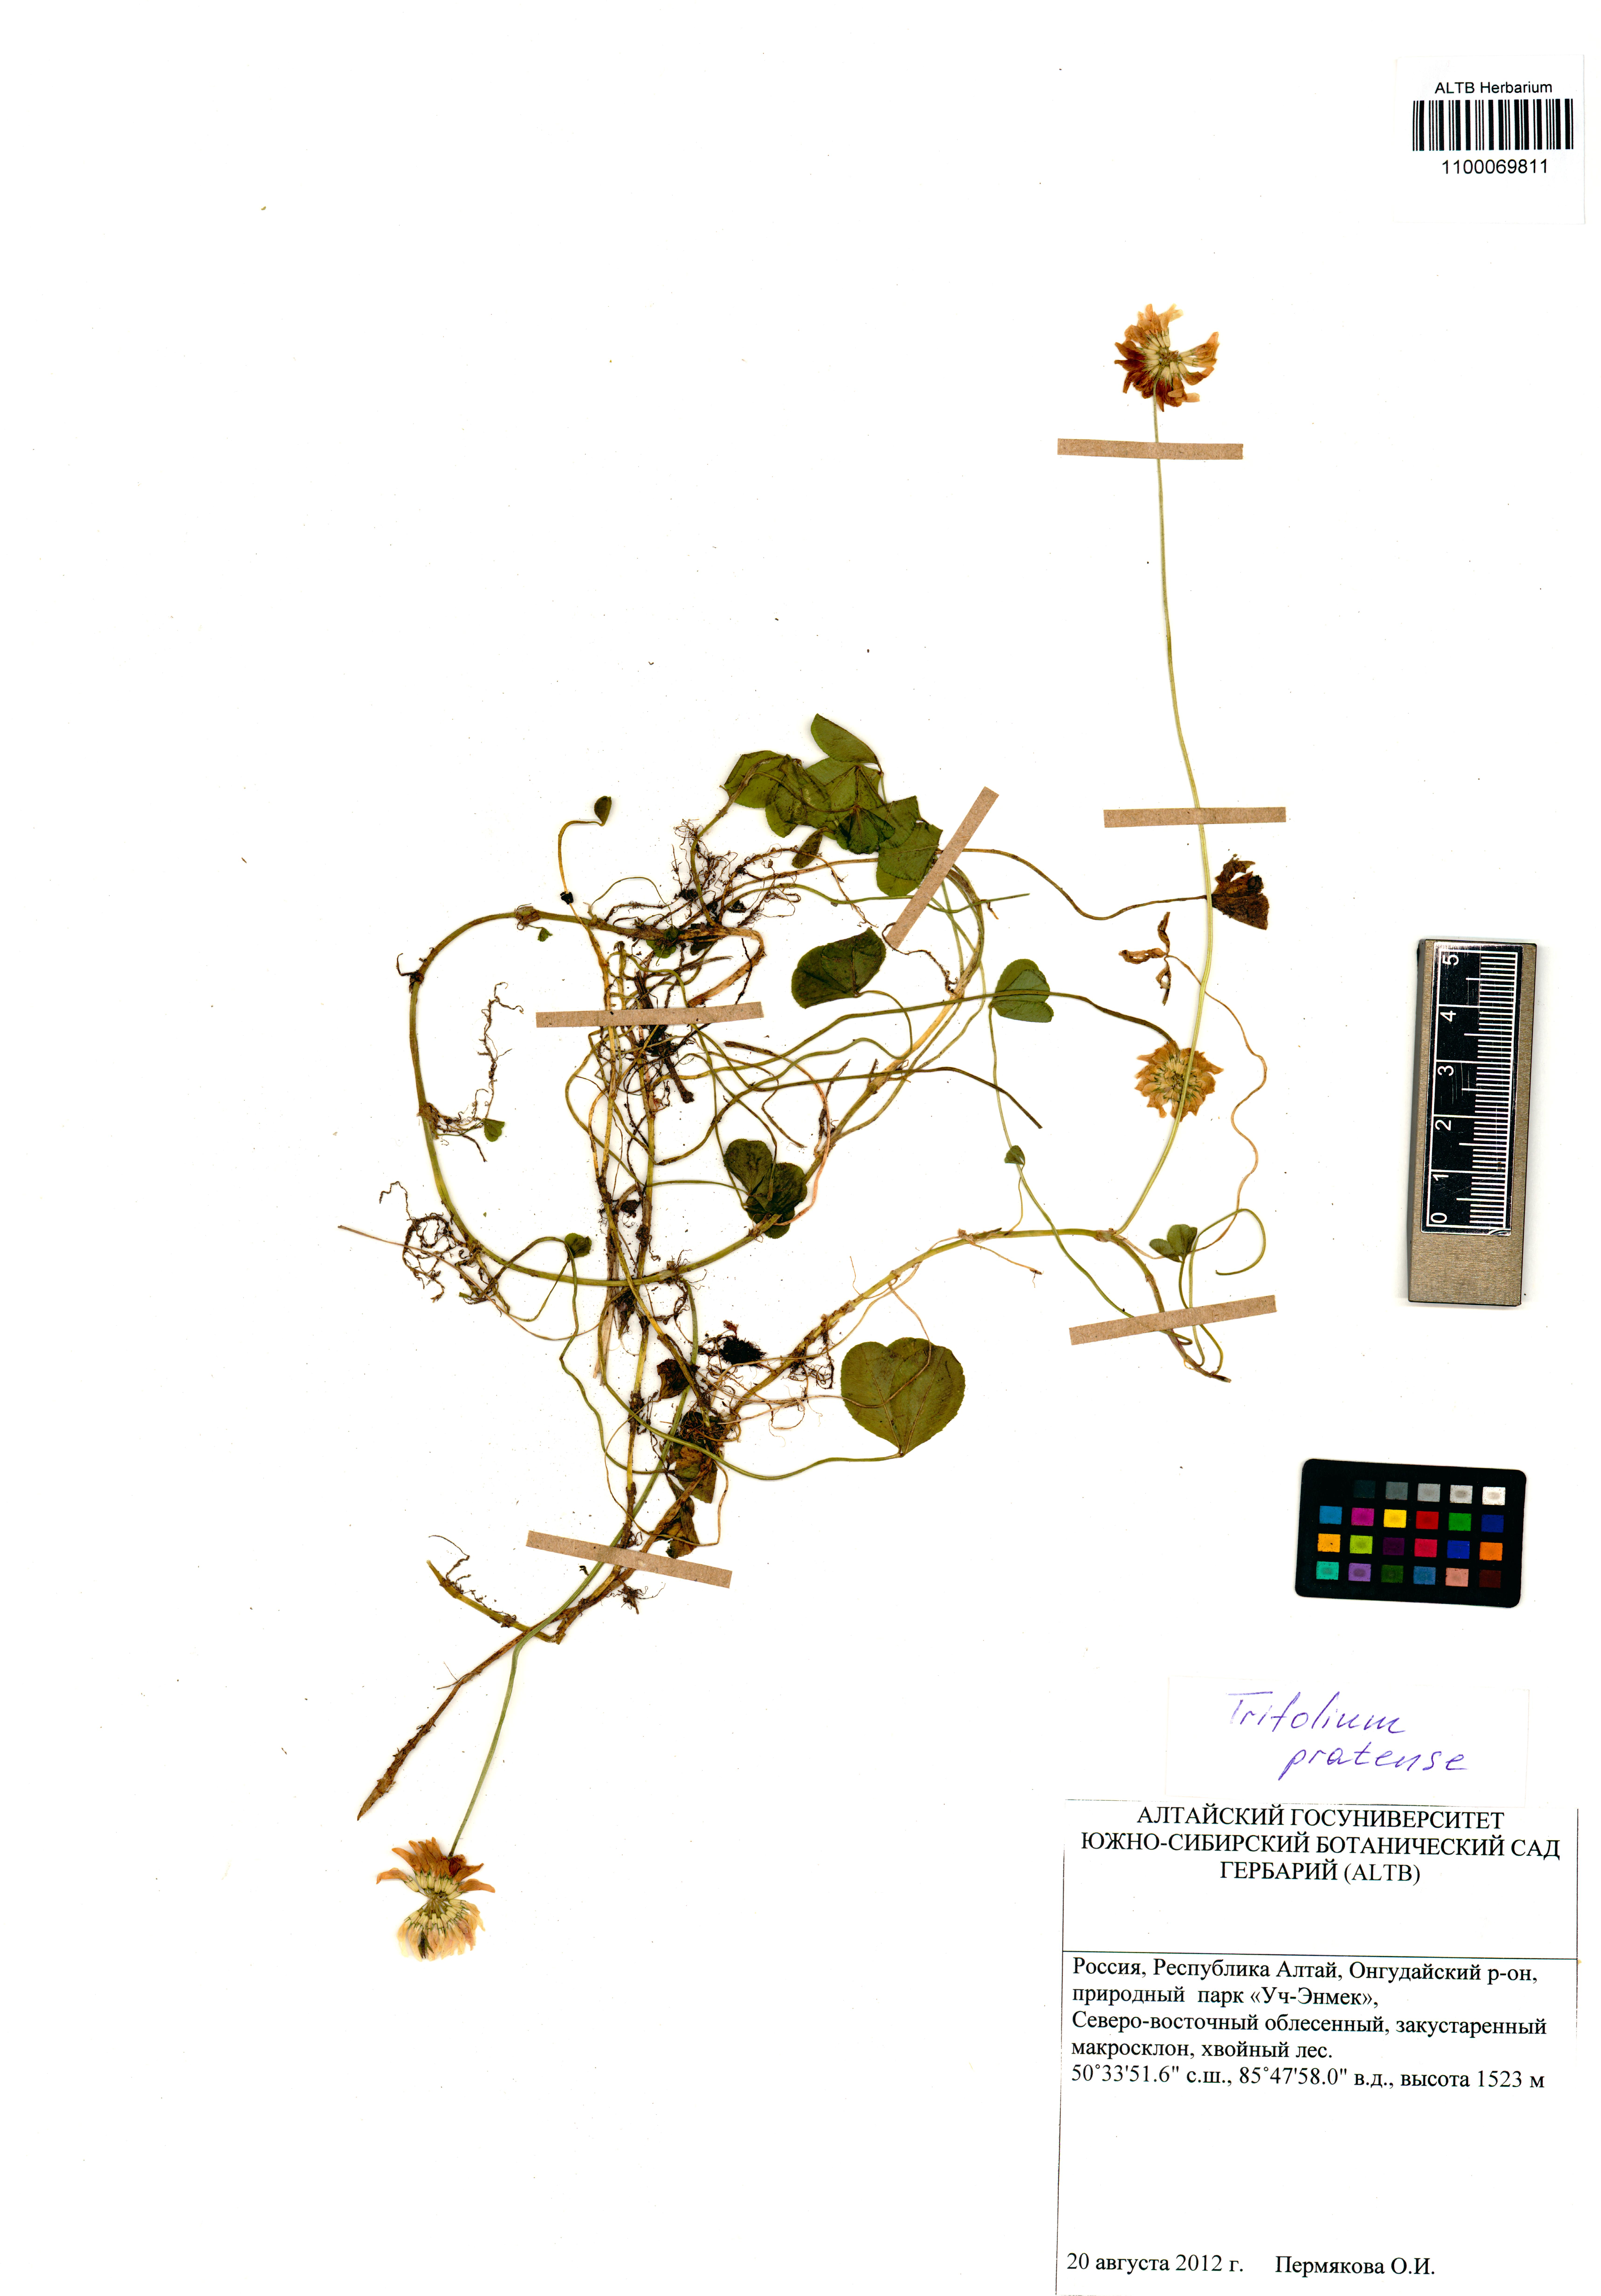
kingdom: Plantae
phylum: Tracheophyta
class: Magnoliopsida
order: Fabales
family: Fabaceae
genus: Trifolium
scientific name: Trifolium pratense
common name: Red clover
